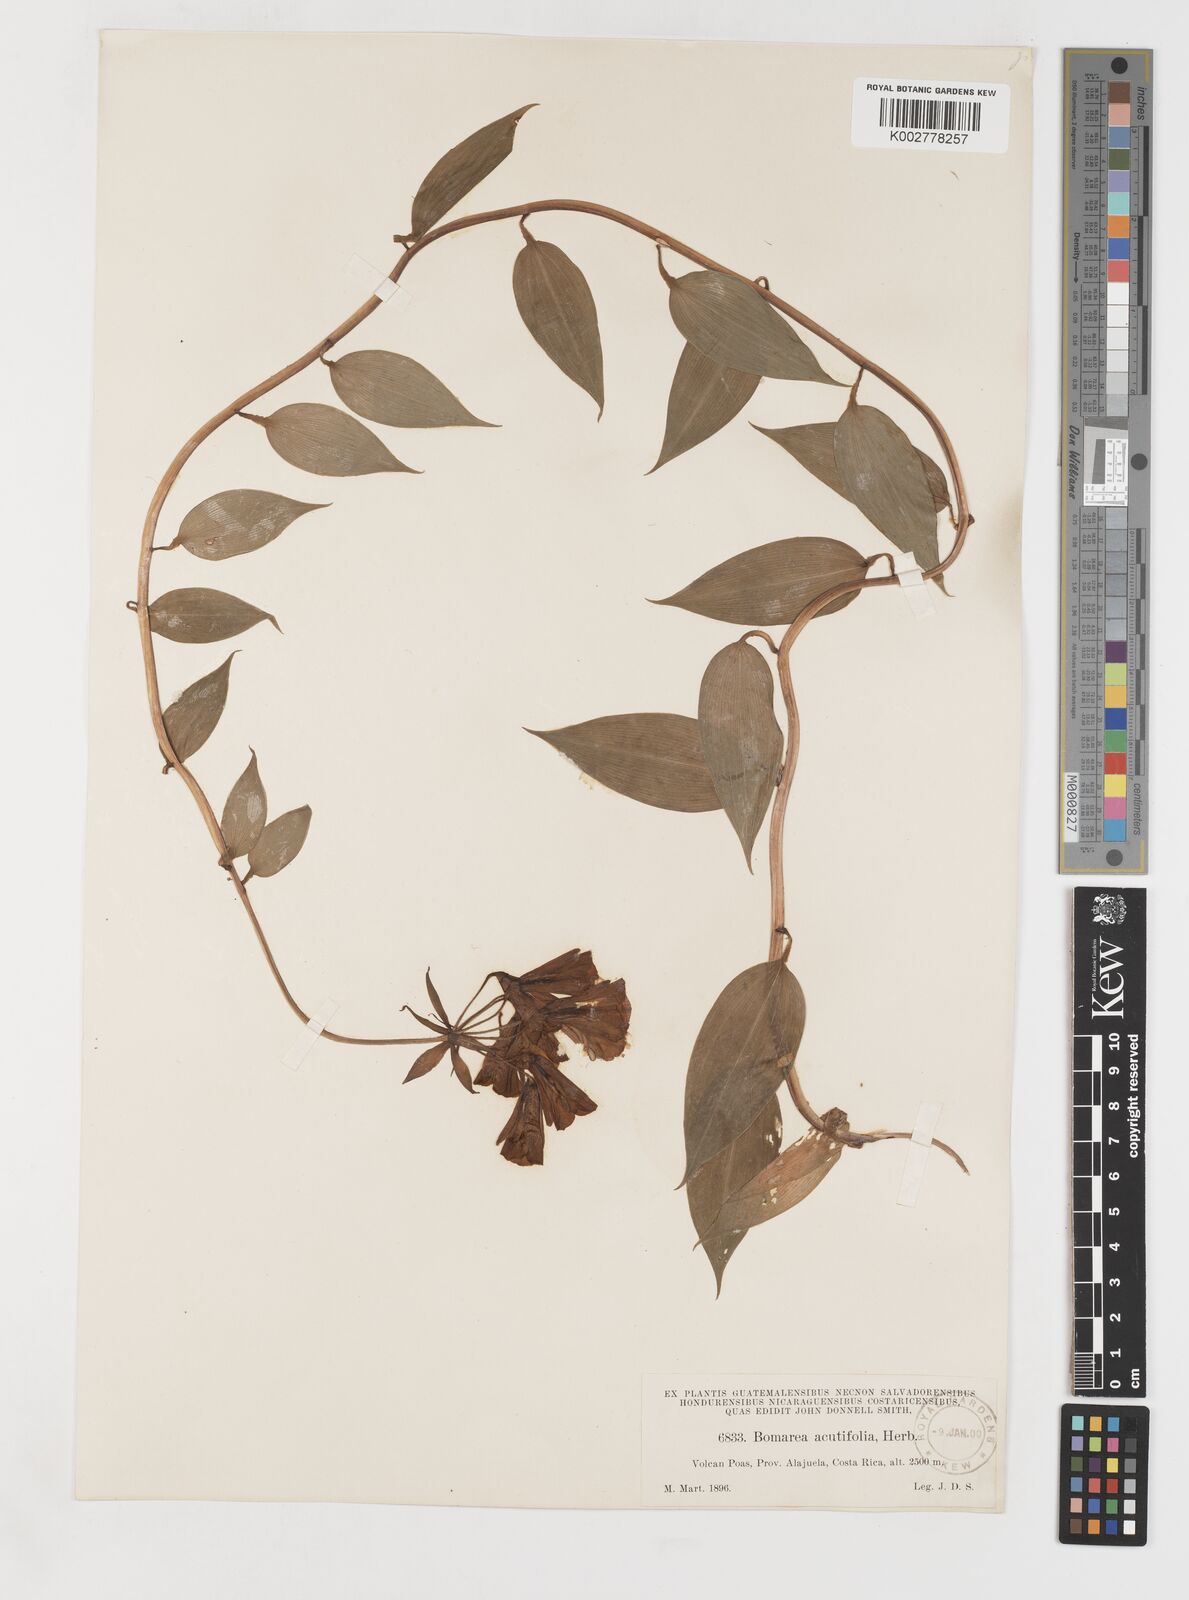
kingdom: Plantae
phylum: Tracheophyta
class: Liliopsida
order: Liliales
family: Alstroemeriaceae
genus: Bomarea
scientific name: Bomarea acutifolia
